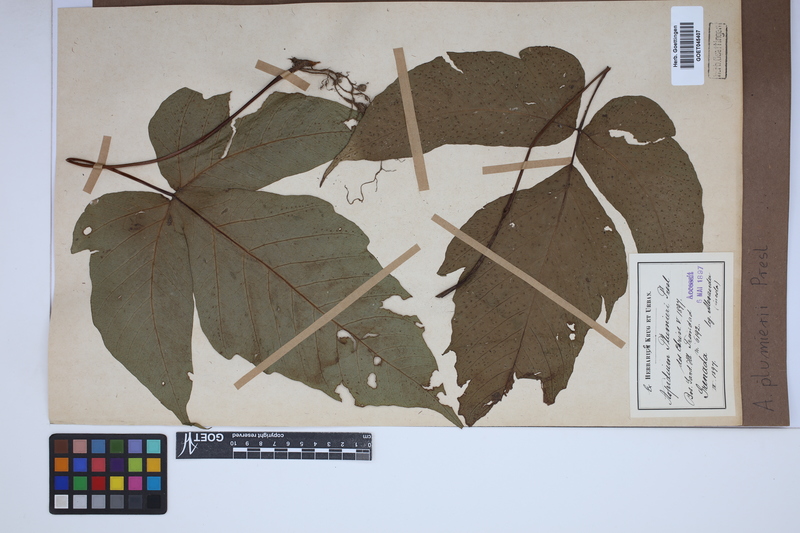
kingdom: Plantae
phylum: Tracheophyta
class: Polypodiopsida
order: Polypodiales
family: Tectariaceae
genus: Tectaria
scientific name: Tectaria trifoliata
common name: Threeleaf halberd fern
